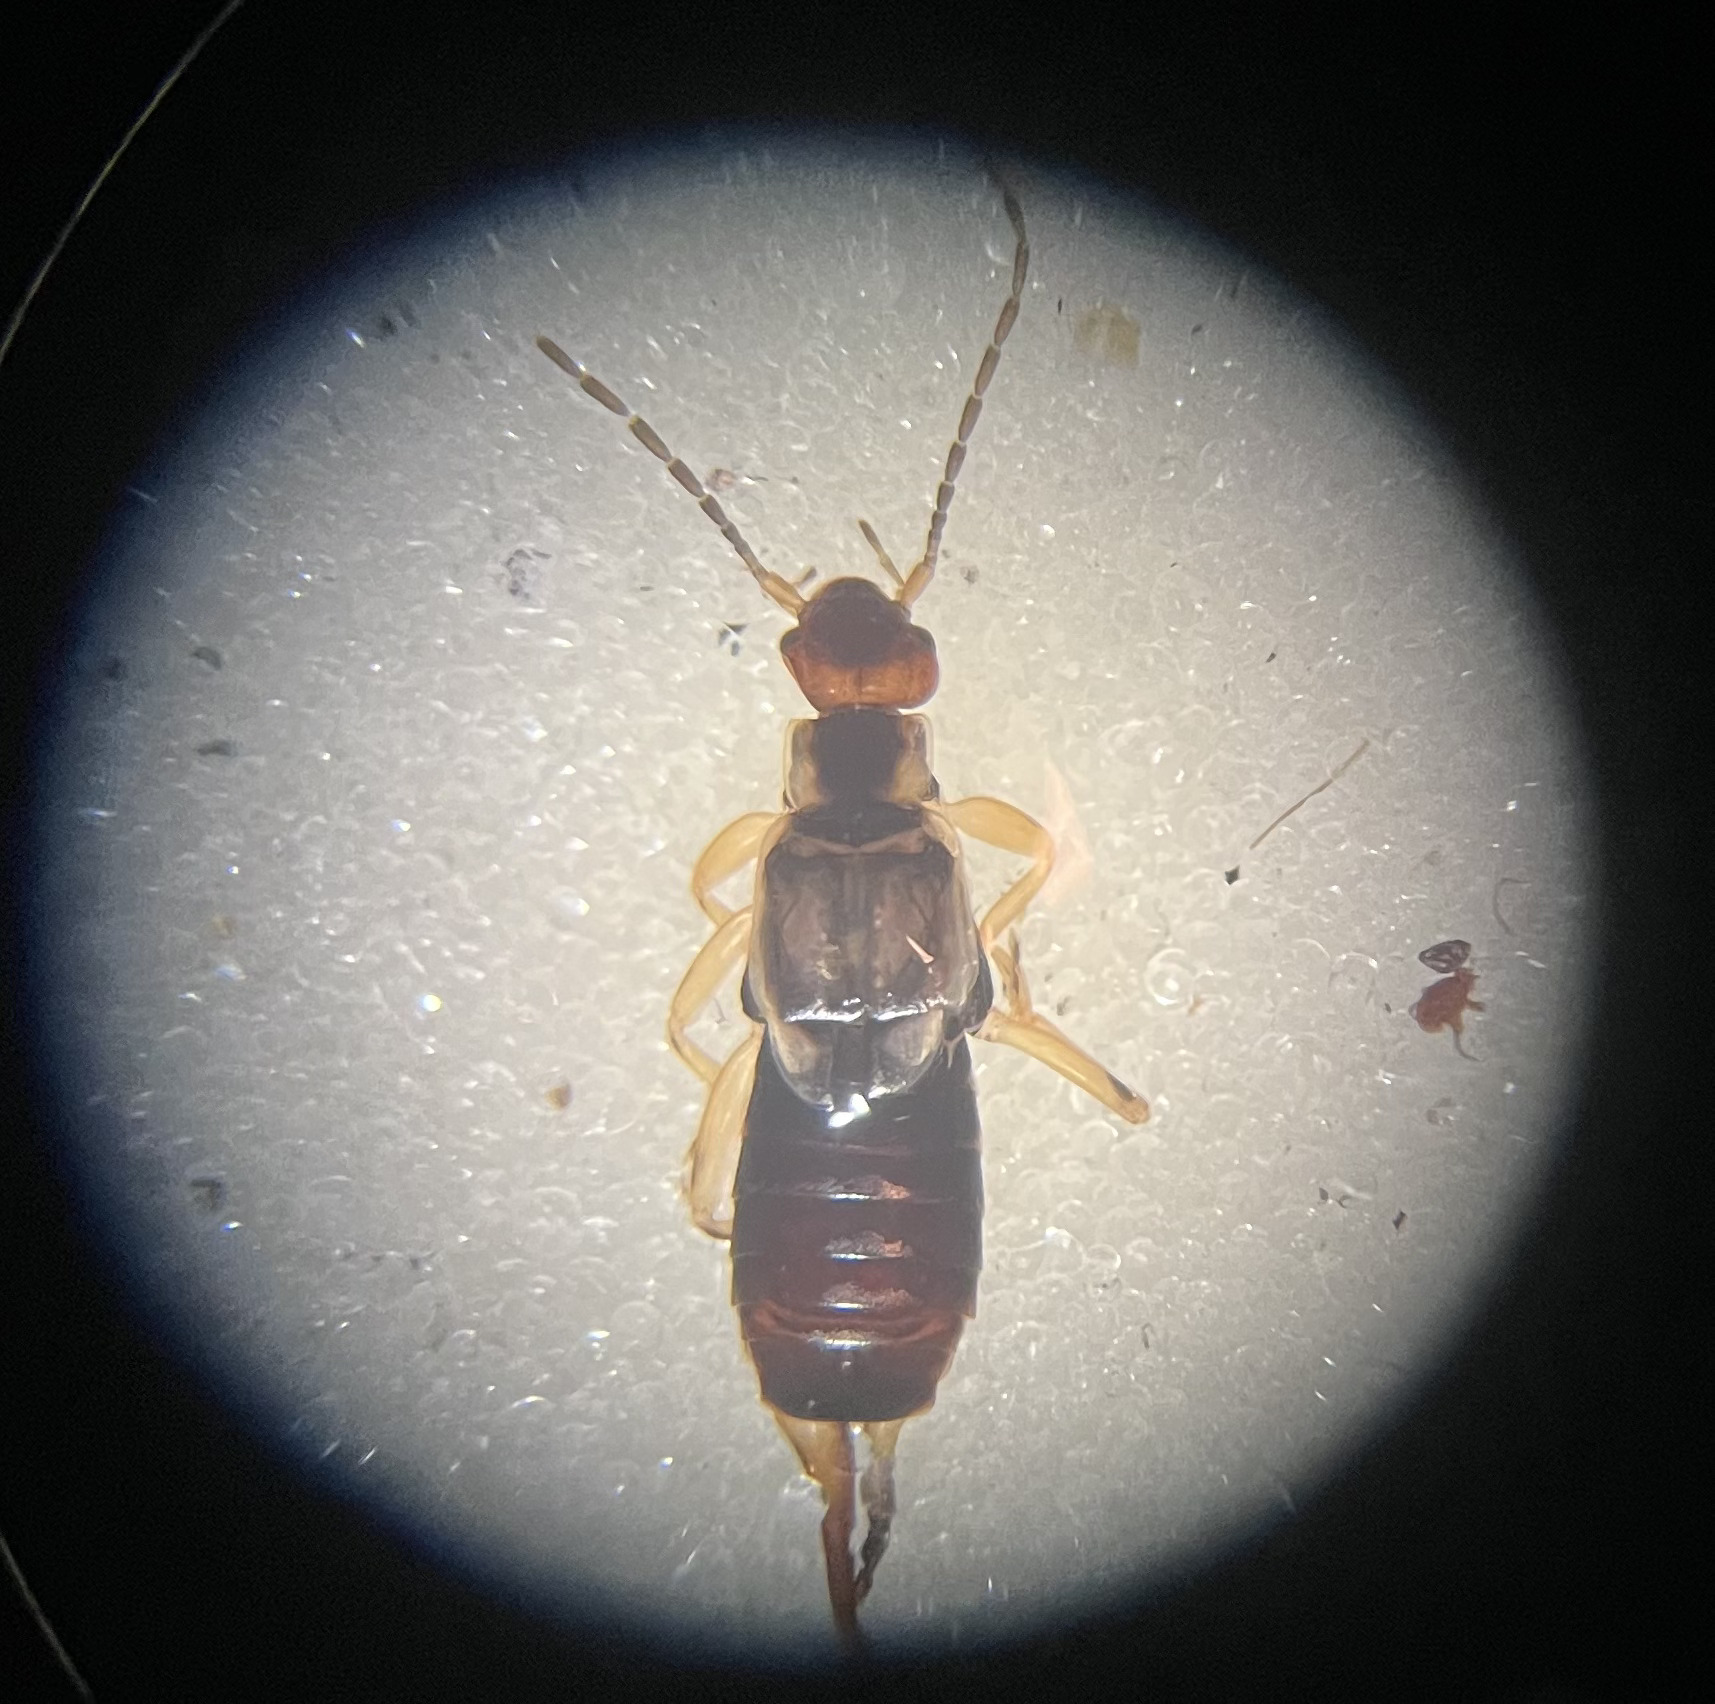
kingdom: Animalia
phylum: Arthropoda
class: Insecta
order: Dermaptera
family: Forficulidae
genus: Forficula
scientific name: Forficula auricularia
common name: Almindelig ørentvist
